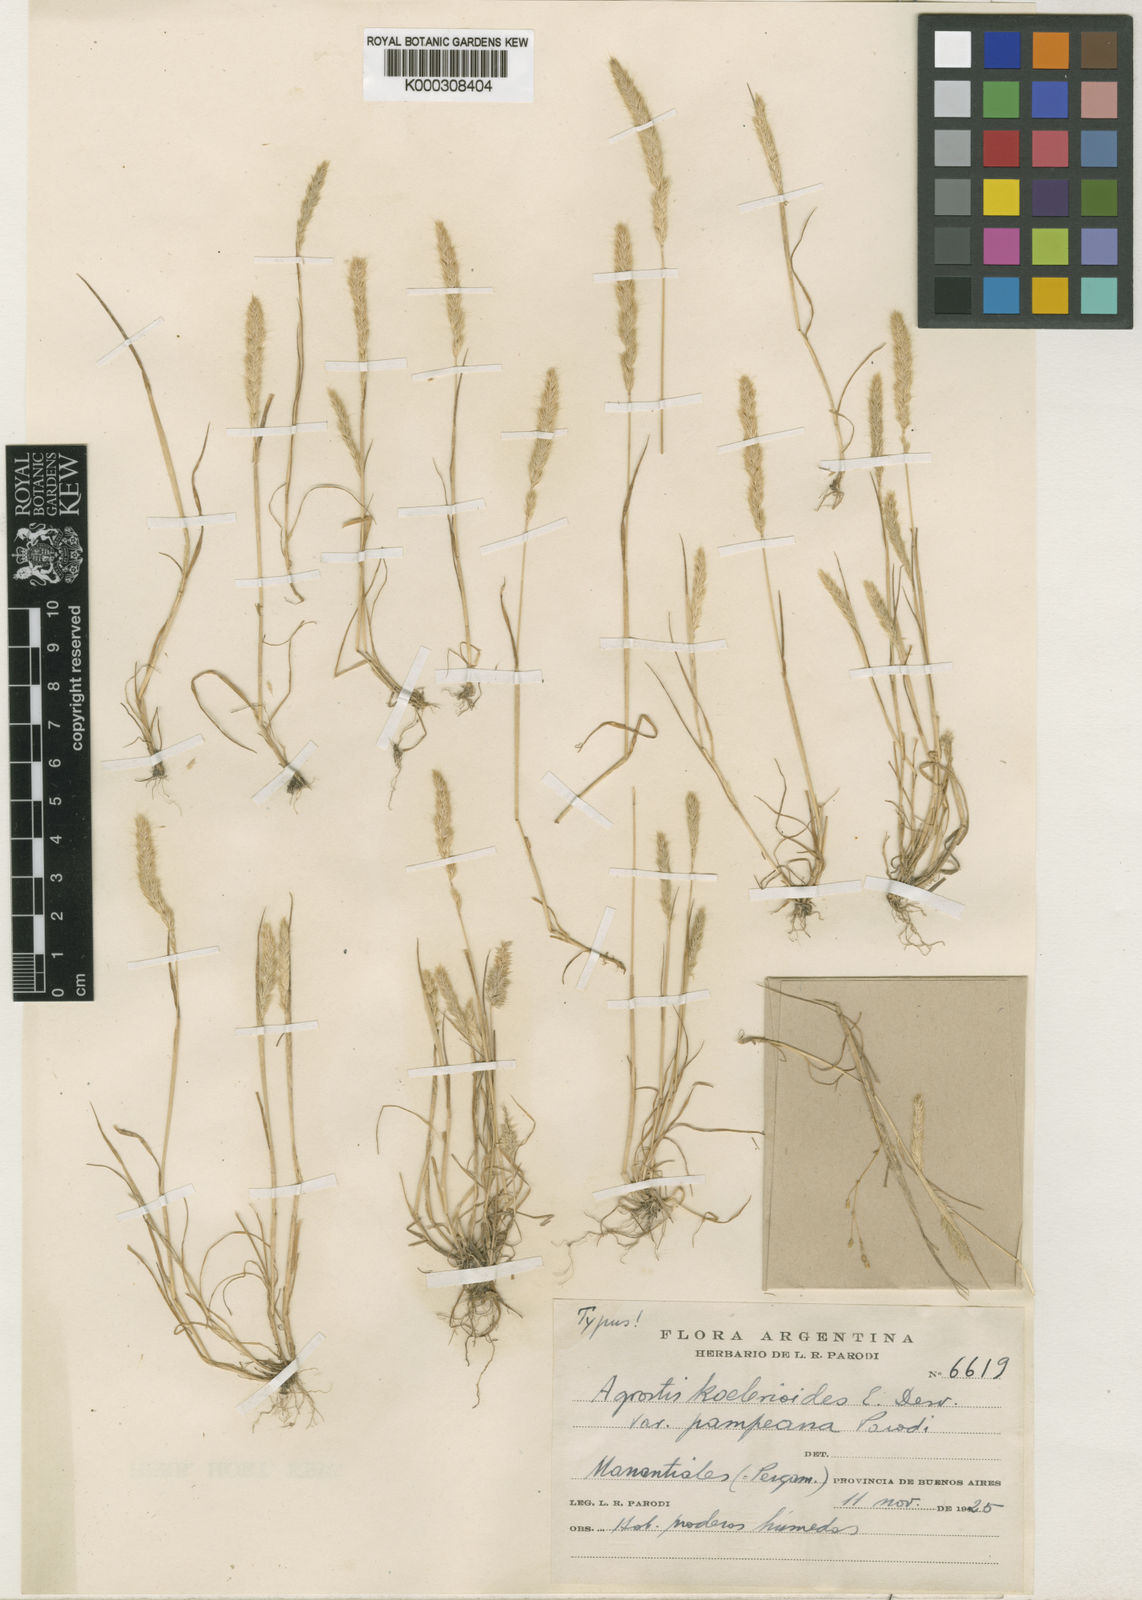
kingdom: Plantae
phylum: Tracheophyta
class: Liliopsida
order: Poales
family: Poaceae
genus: Agrostis
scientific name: Agrostis tandilensis
